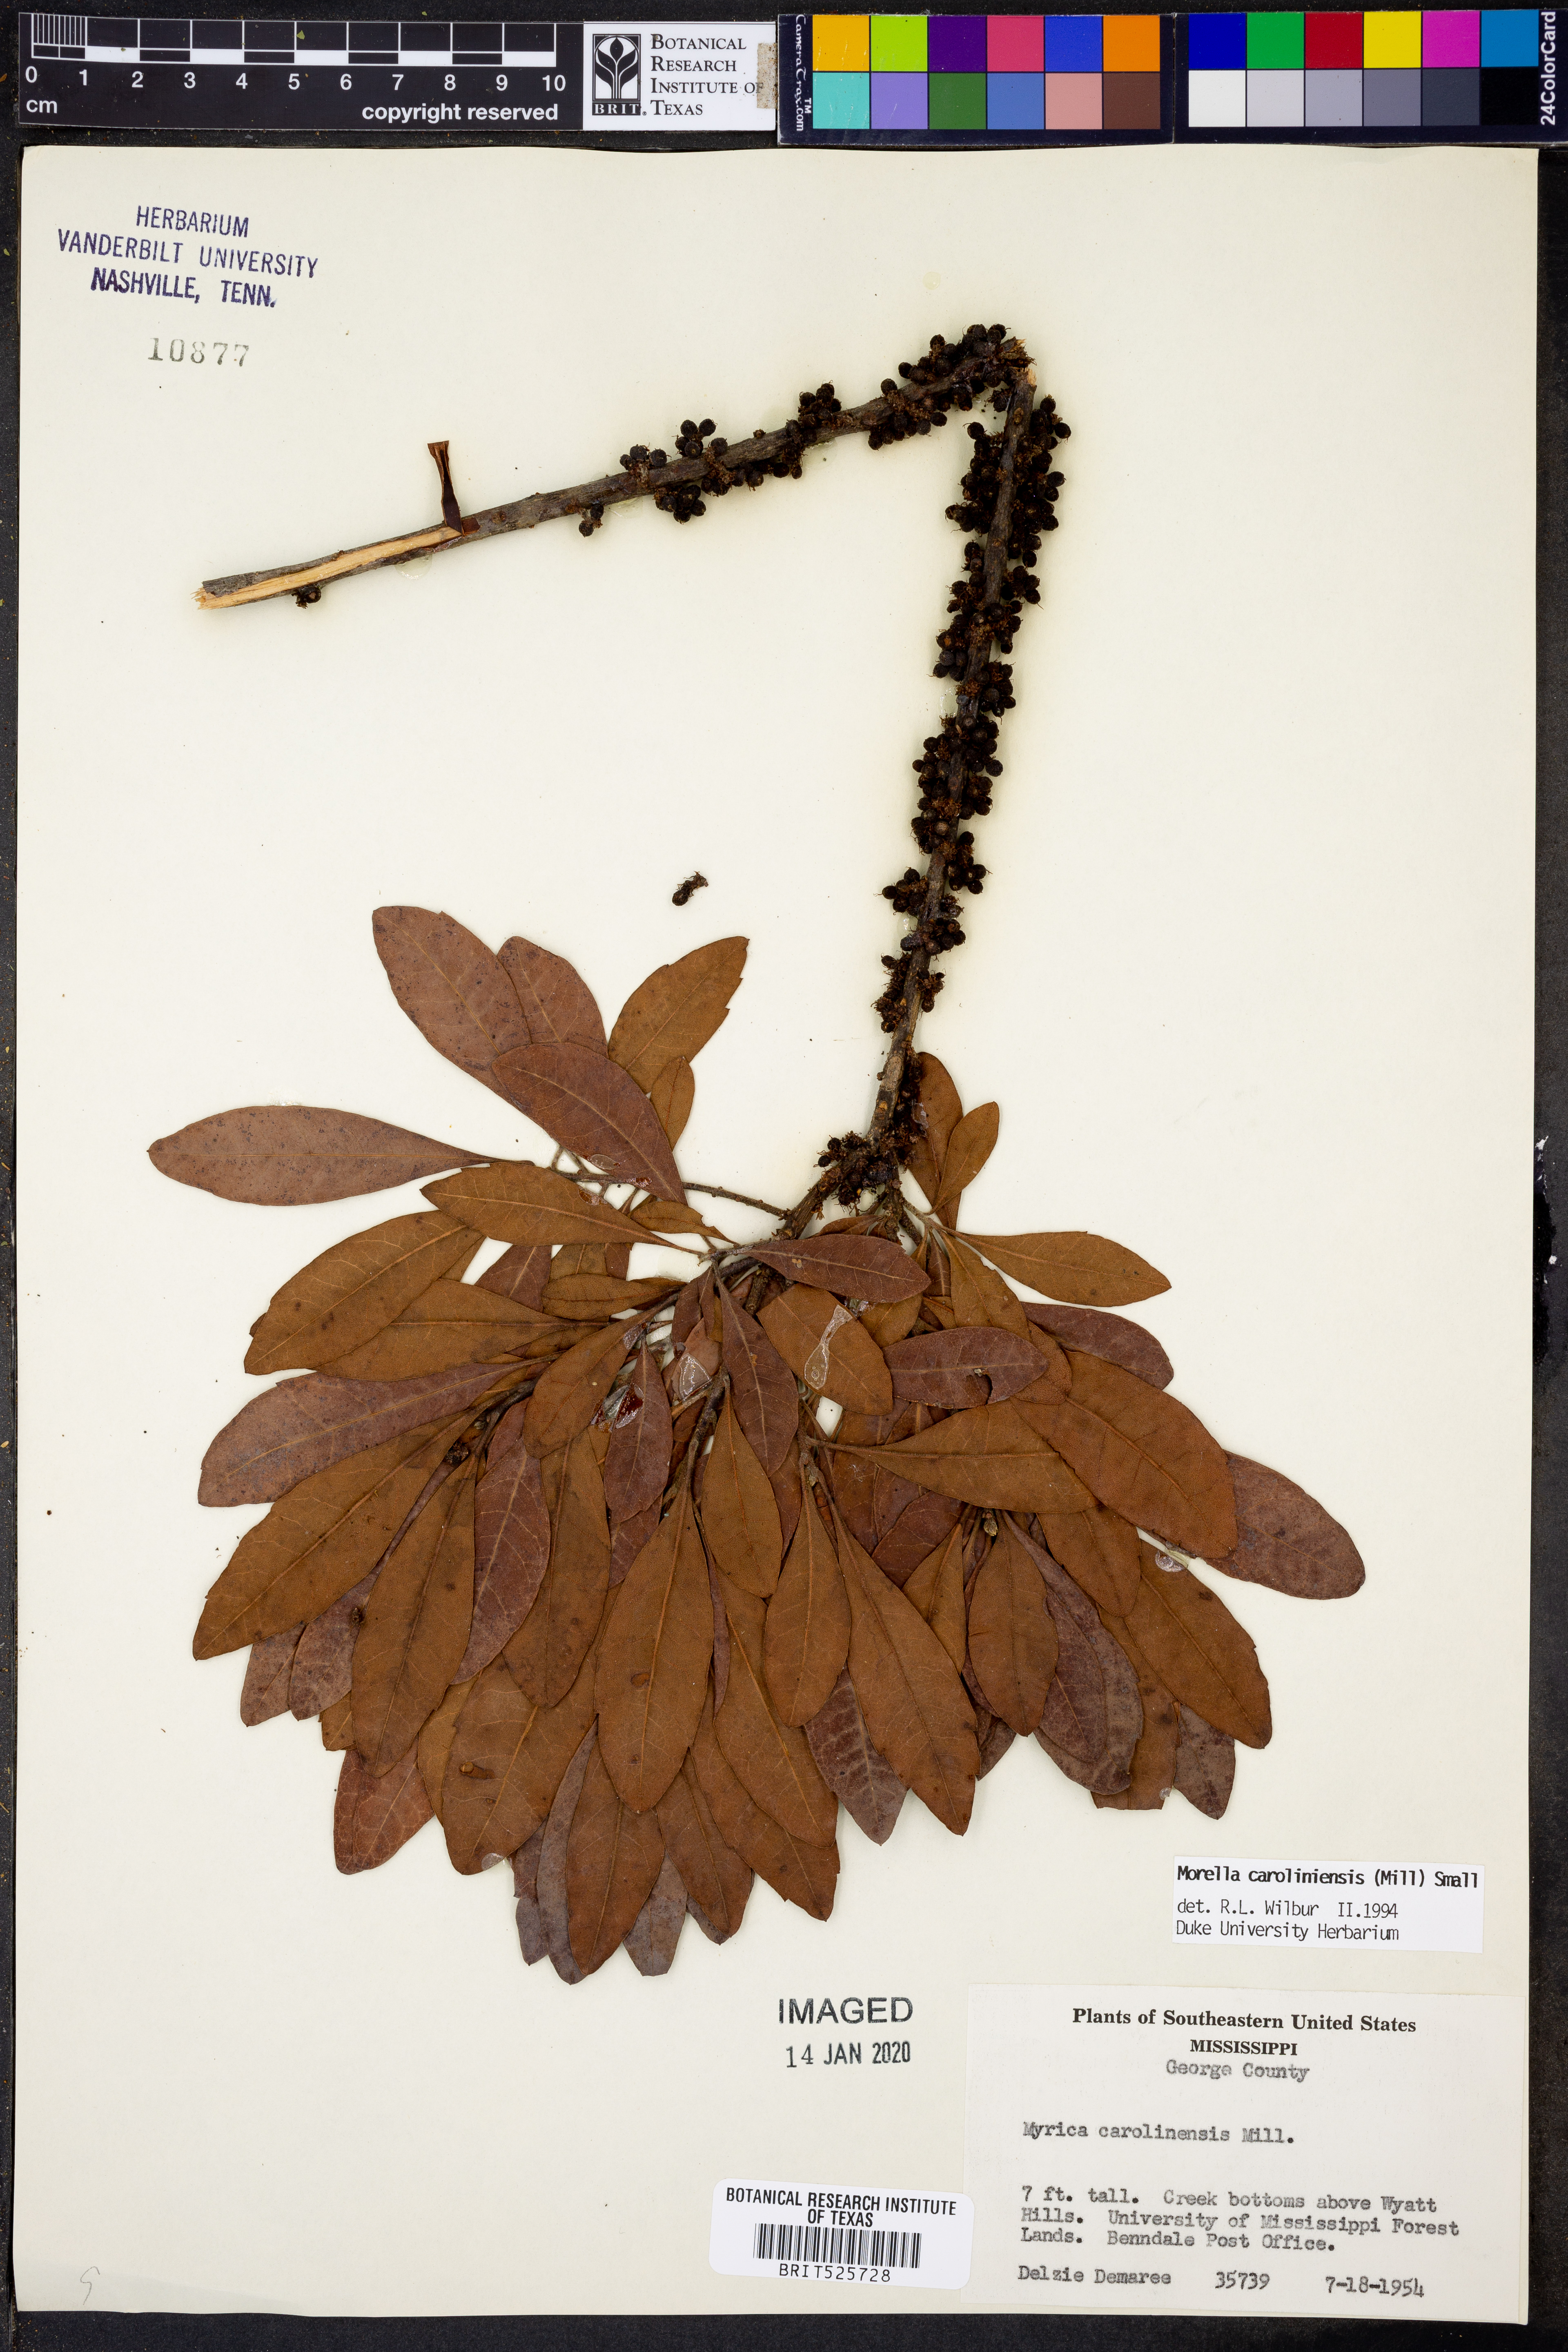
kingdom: Plantae
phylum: Tracheophyta
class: Magnoliopsida
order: Fagales
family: Myricaceae
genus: Morella
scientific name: Morella caroliniensis
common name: Evergreen bayberry
